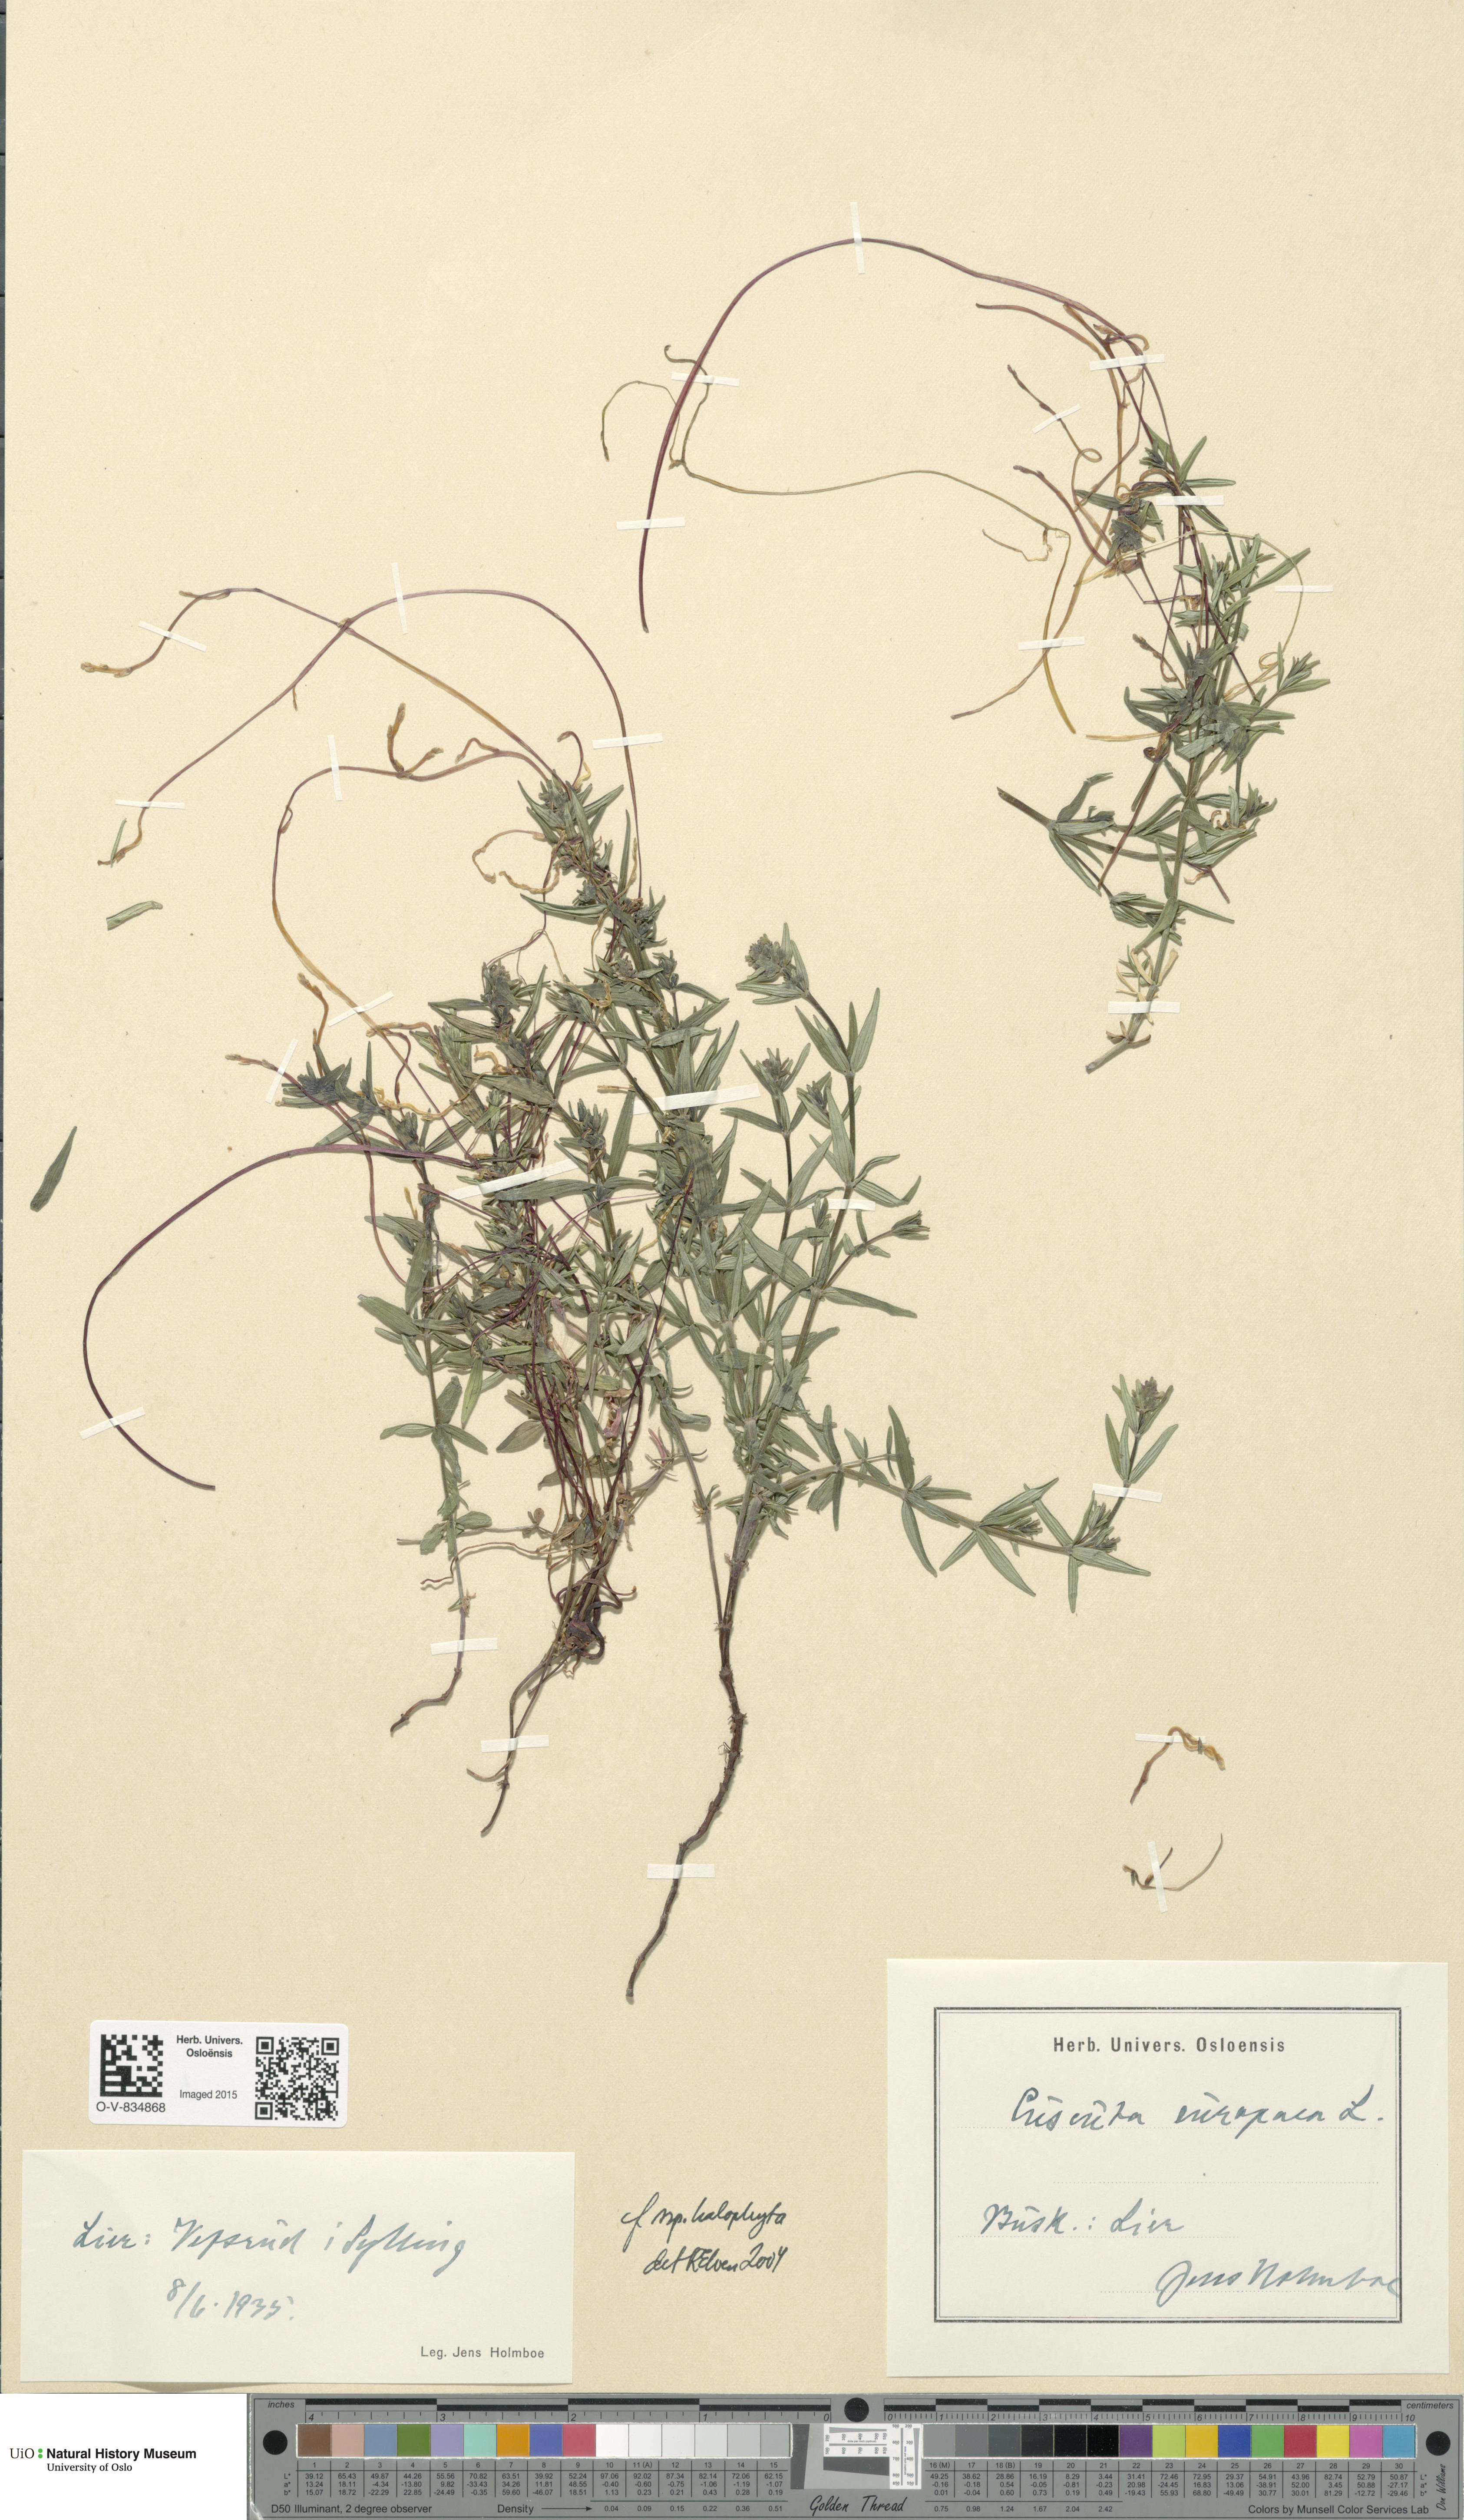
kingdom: Plantae
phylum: Tracheophyta
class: Magnoliopsida
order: Solanales
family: Convolvulaceae
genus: Cuscuta
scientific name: Cuscuta europaea
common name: Greater dodder
